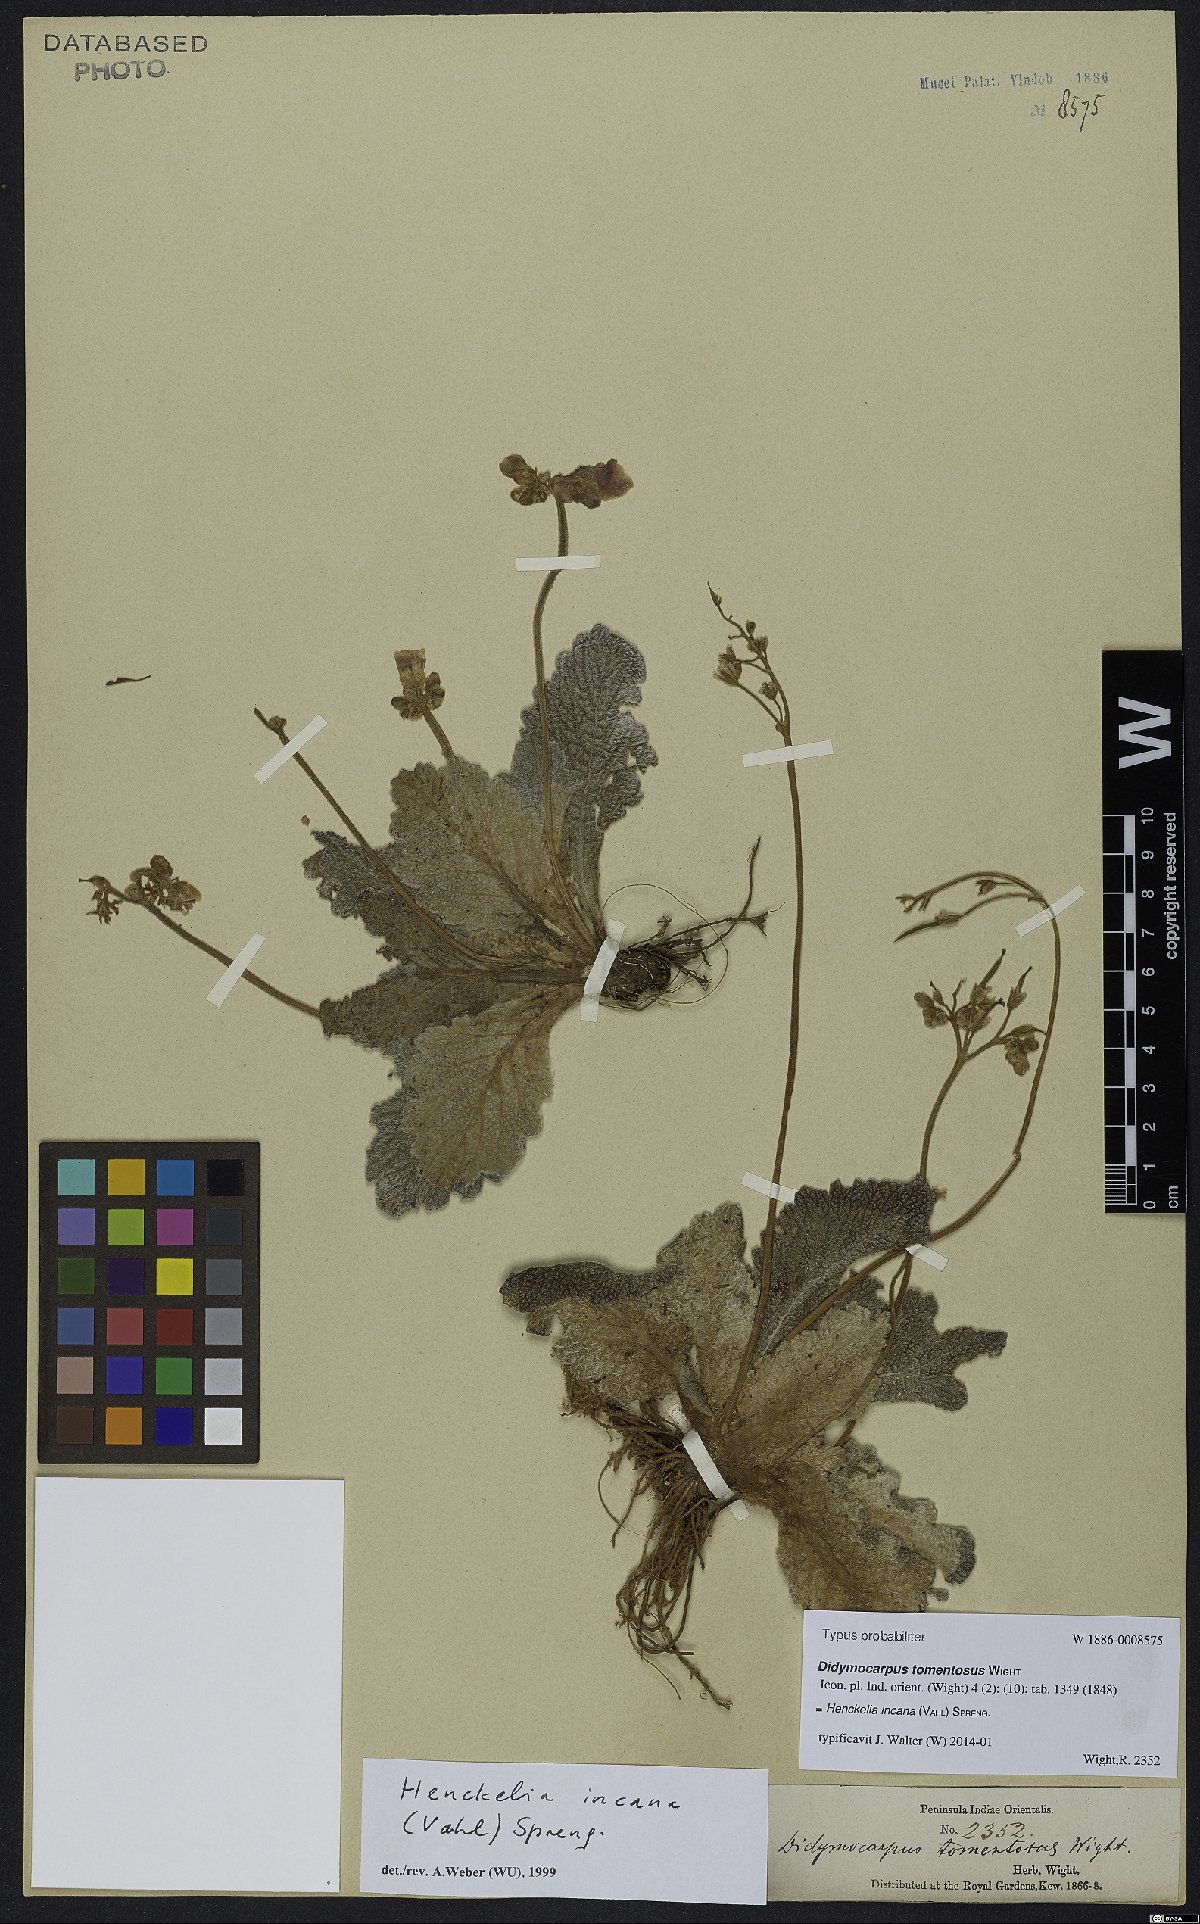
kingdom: Plantae
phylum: Tracheophyta
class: Magnoliopsida
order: Lamiales
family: Gesneriaceae
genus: Henckelia
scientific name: Henckelia incana
